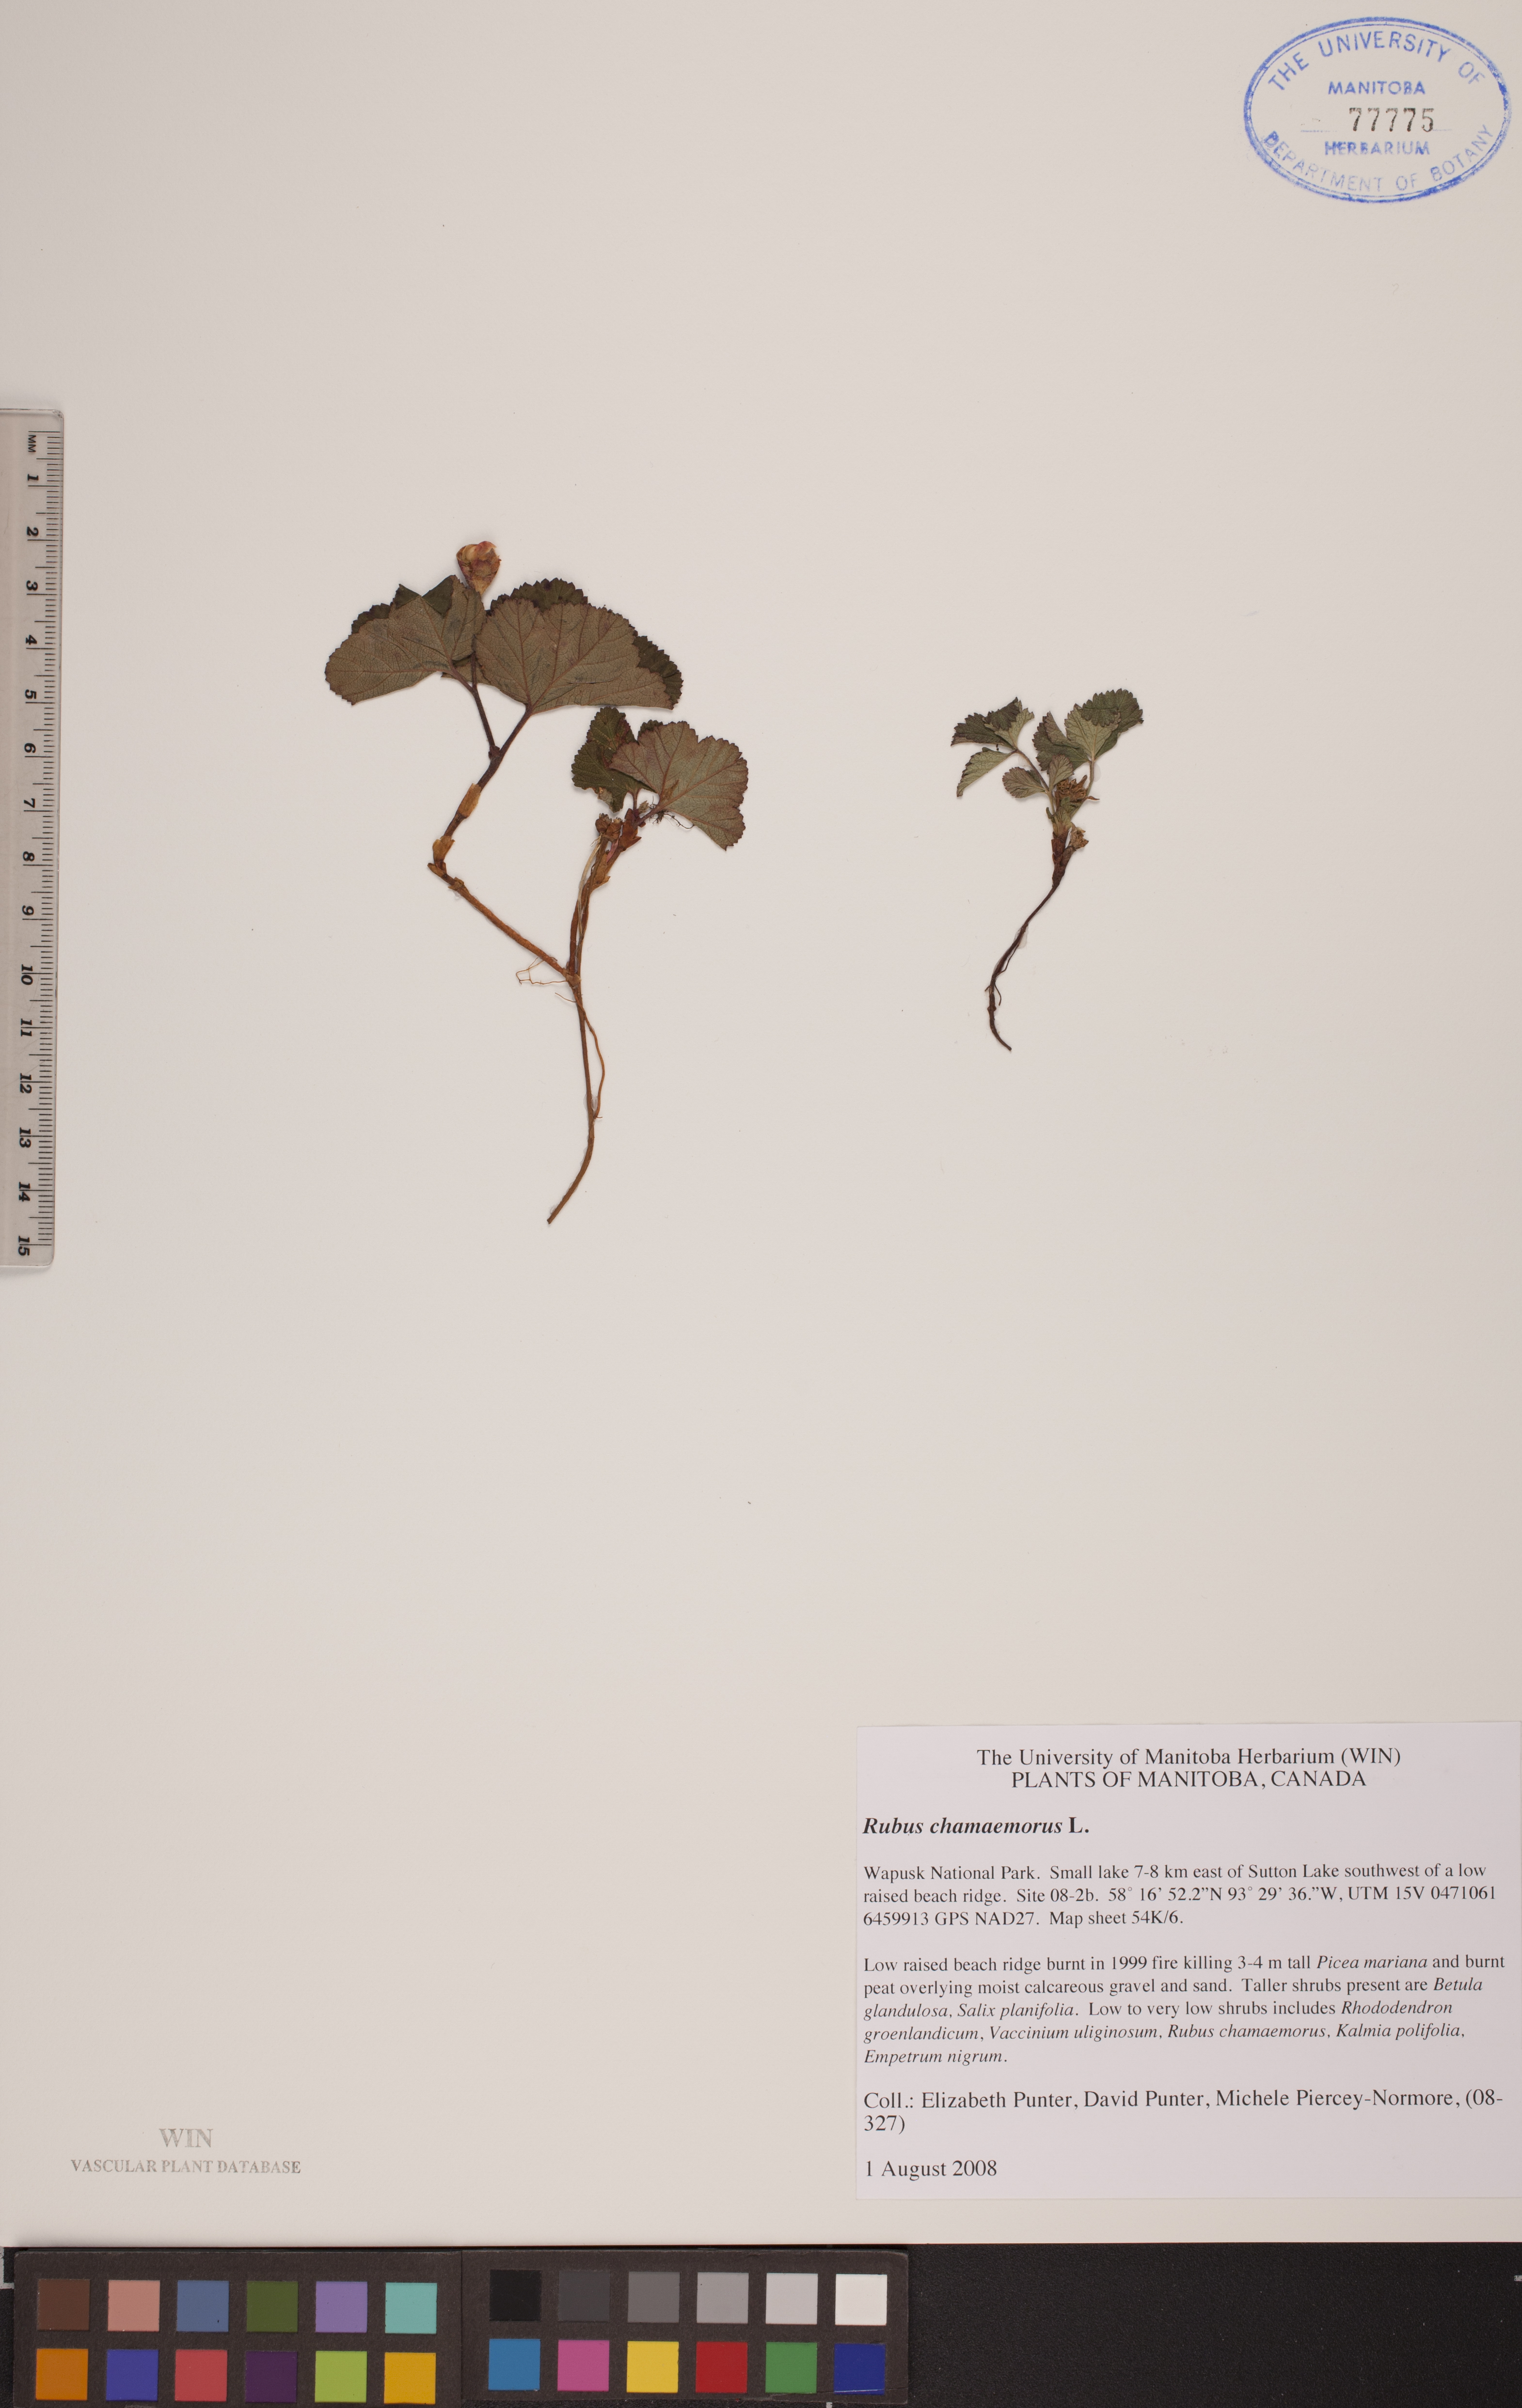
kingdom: Plantae
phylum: Tracheophyta
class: Magnoliopsida
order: Rosales
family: Rosaceae
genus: Rubus
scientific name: Rubus chamaemorus
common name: Cloudberry
